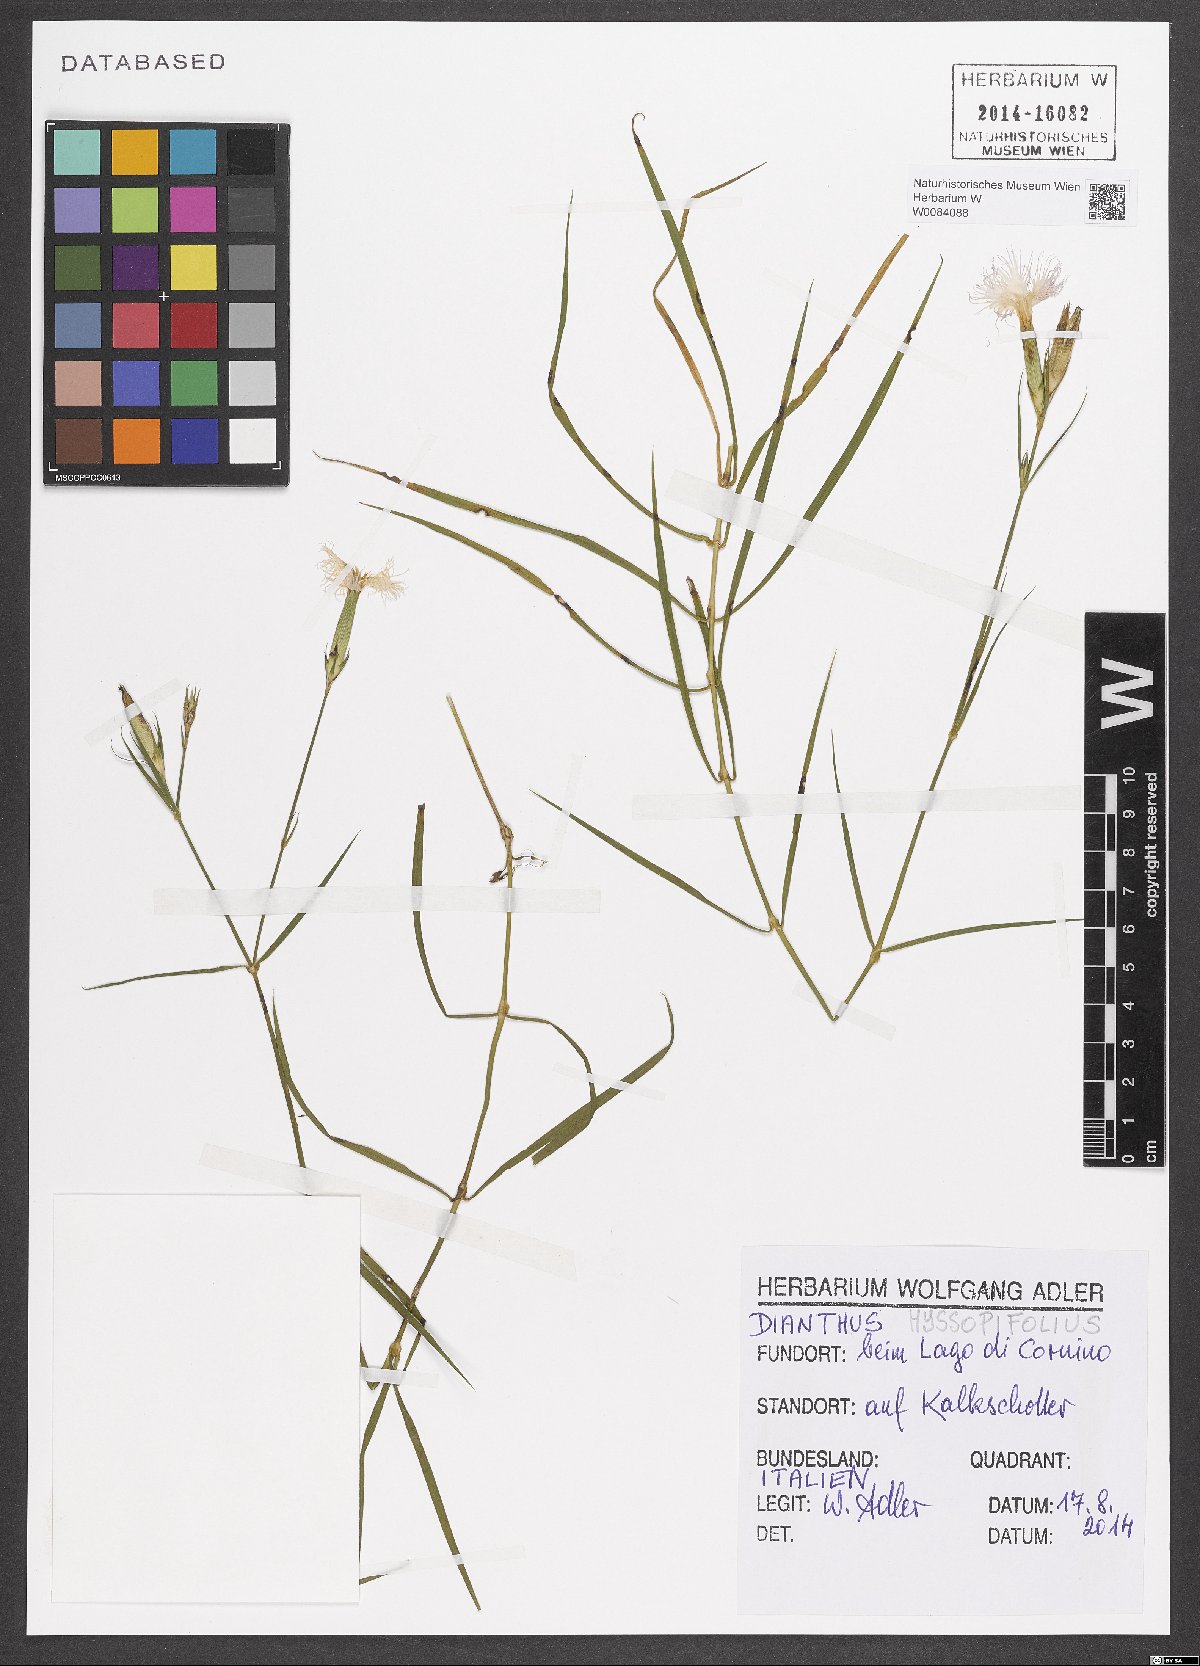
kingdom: Plantae
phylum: Tracheophyta
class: Magnoliopsida
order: Caryophyllales
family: Caryophyllaceae
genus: Dianthus
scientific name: Dianthus hyssopifolius
